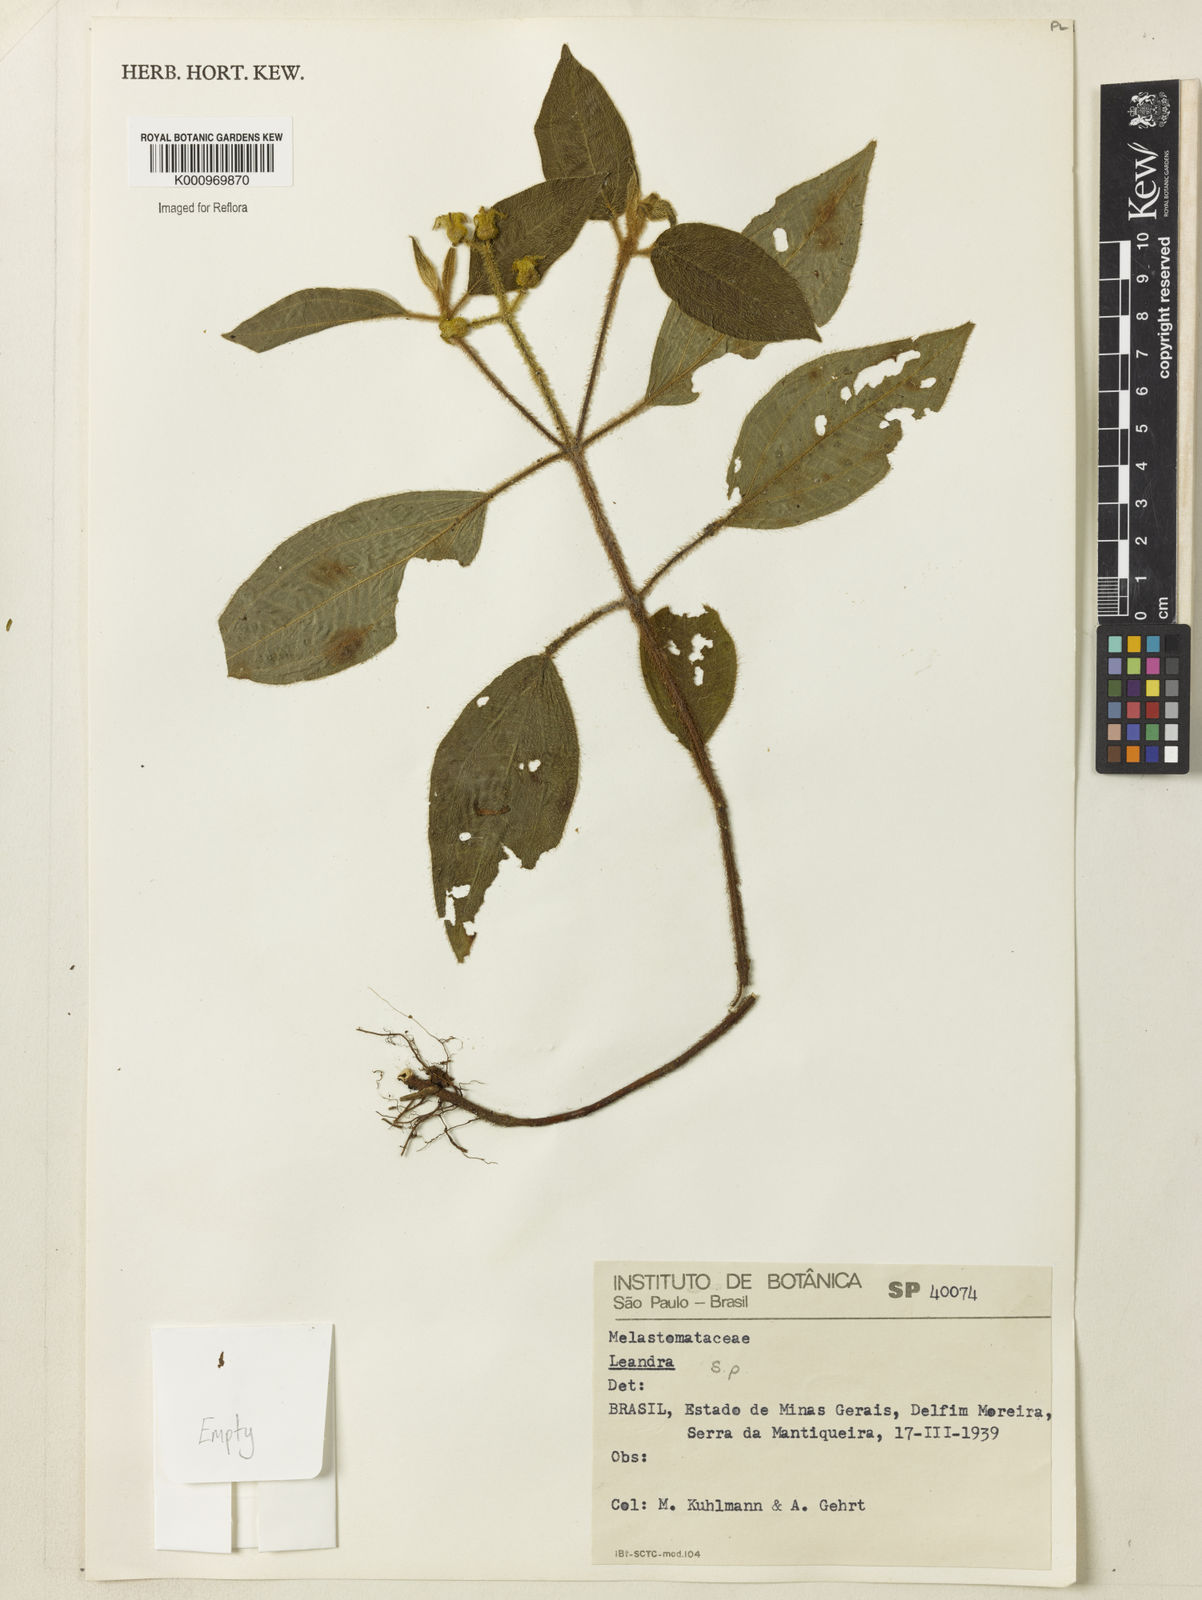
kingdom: Plantae
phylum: Tracheophyta
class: Magnoliopsida
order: Myrtales
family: Melastomataceae
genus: Miconia
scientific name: Miconia
